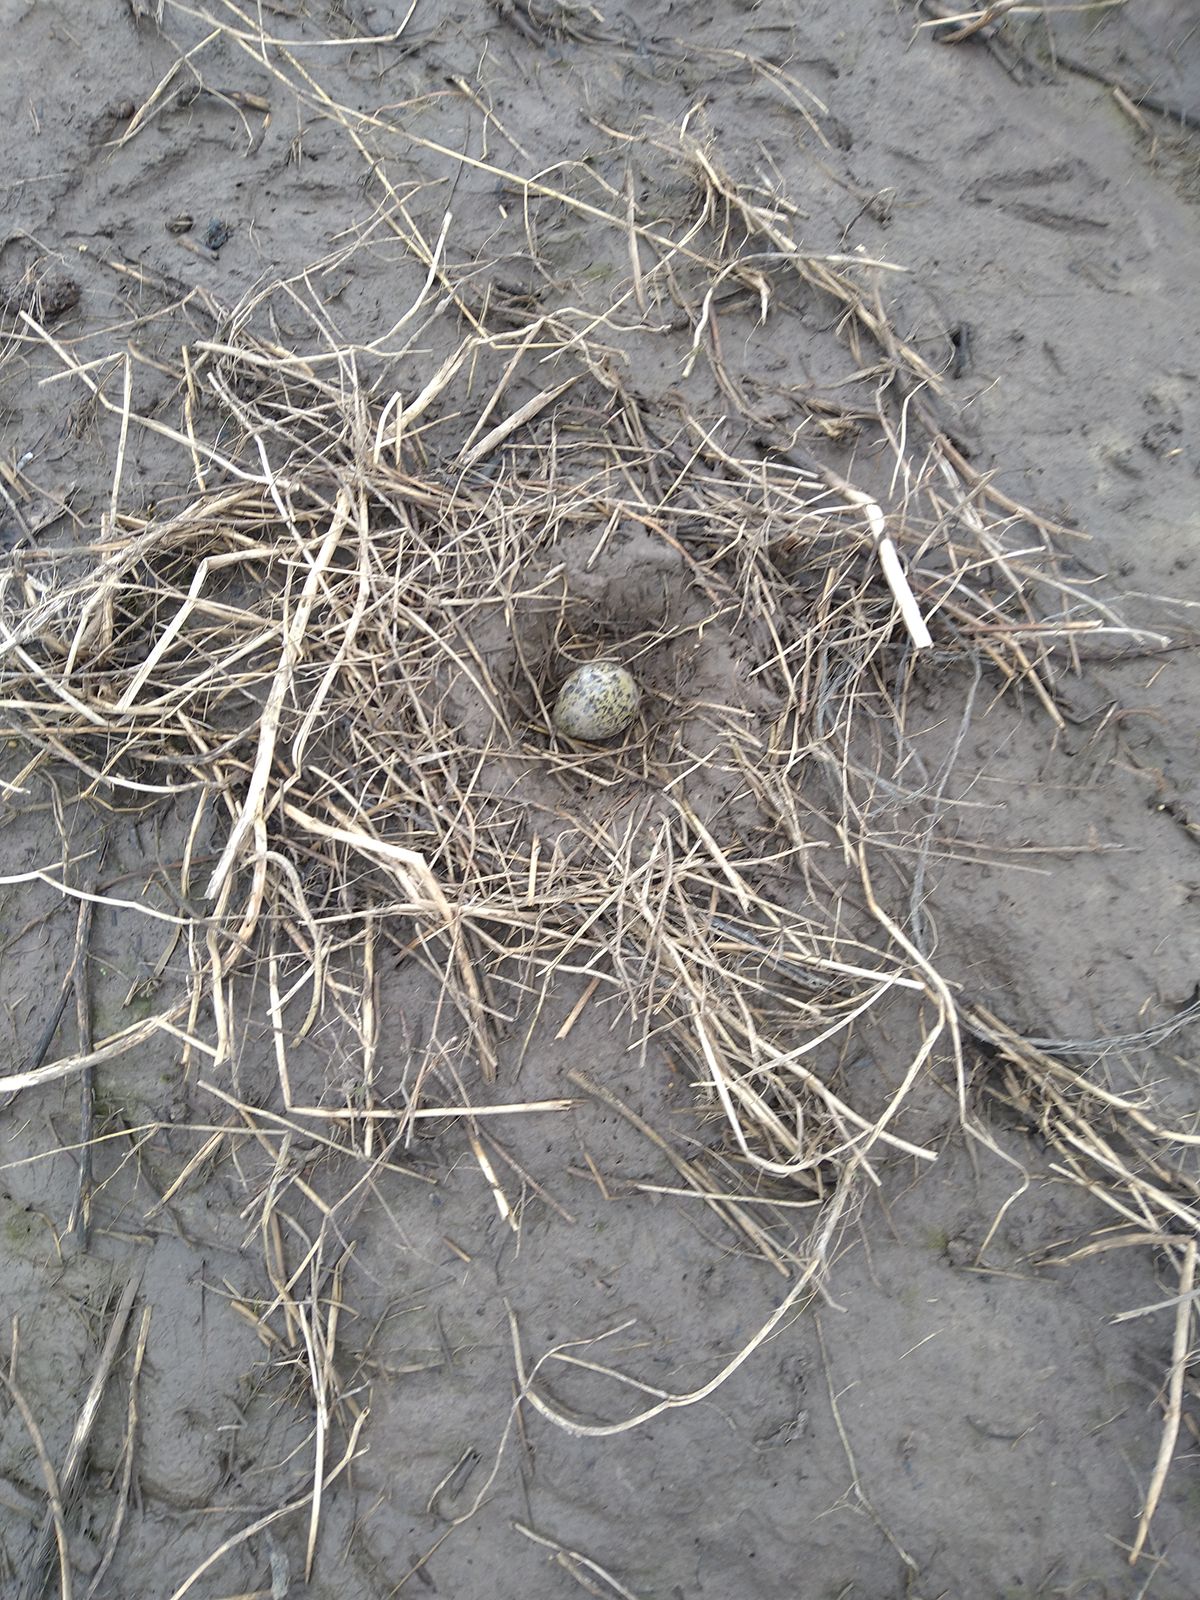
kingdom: Animalia
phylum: Chordata
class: Aves
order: Charadriiformes
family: Charadriidae
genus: Vanellus
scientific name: Vanellus vanellus
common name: Northern lapwing
